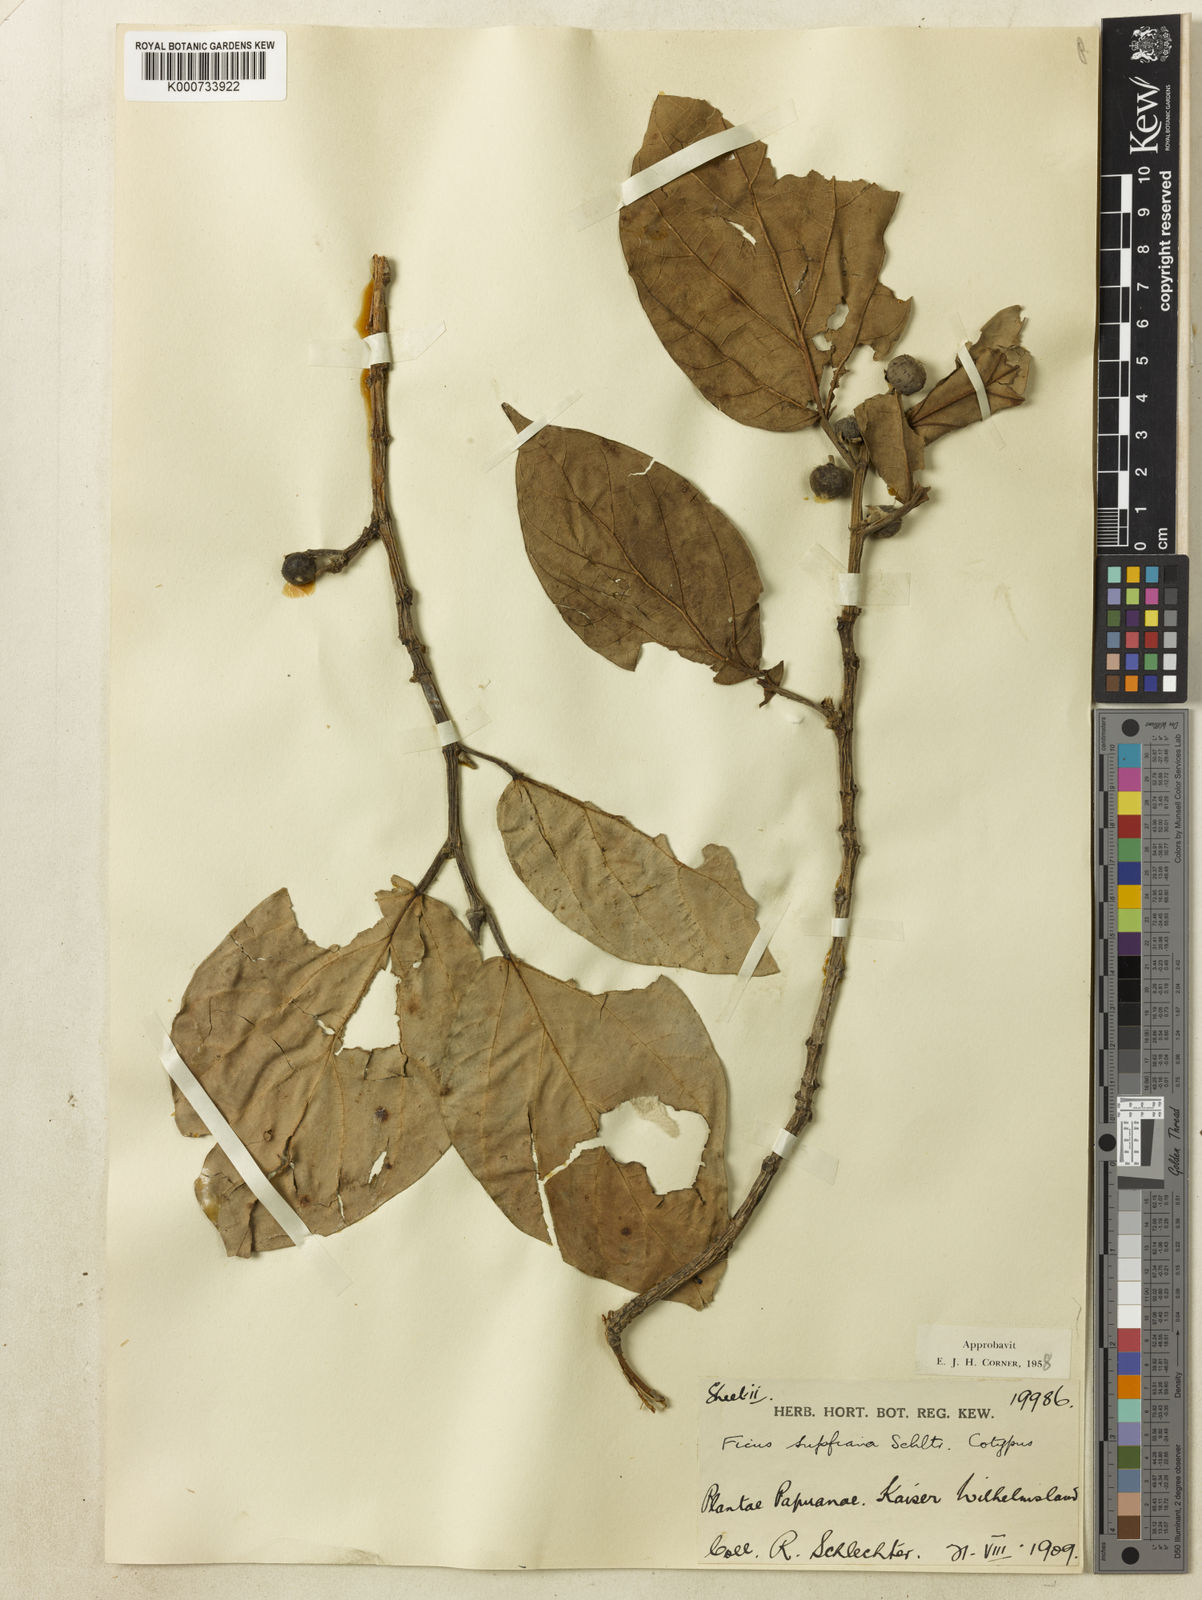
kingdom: Plantae
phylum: Tracheophyta
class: Magnoliopsida
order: Rosales
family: Moraceae
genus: Ficus
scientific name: Ficus supfiana
